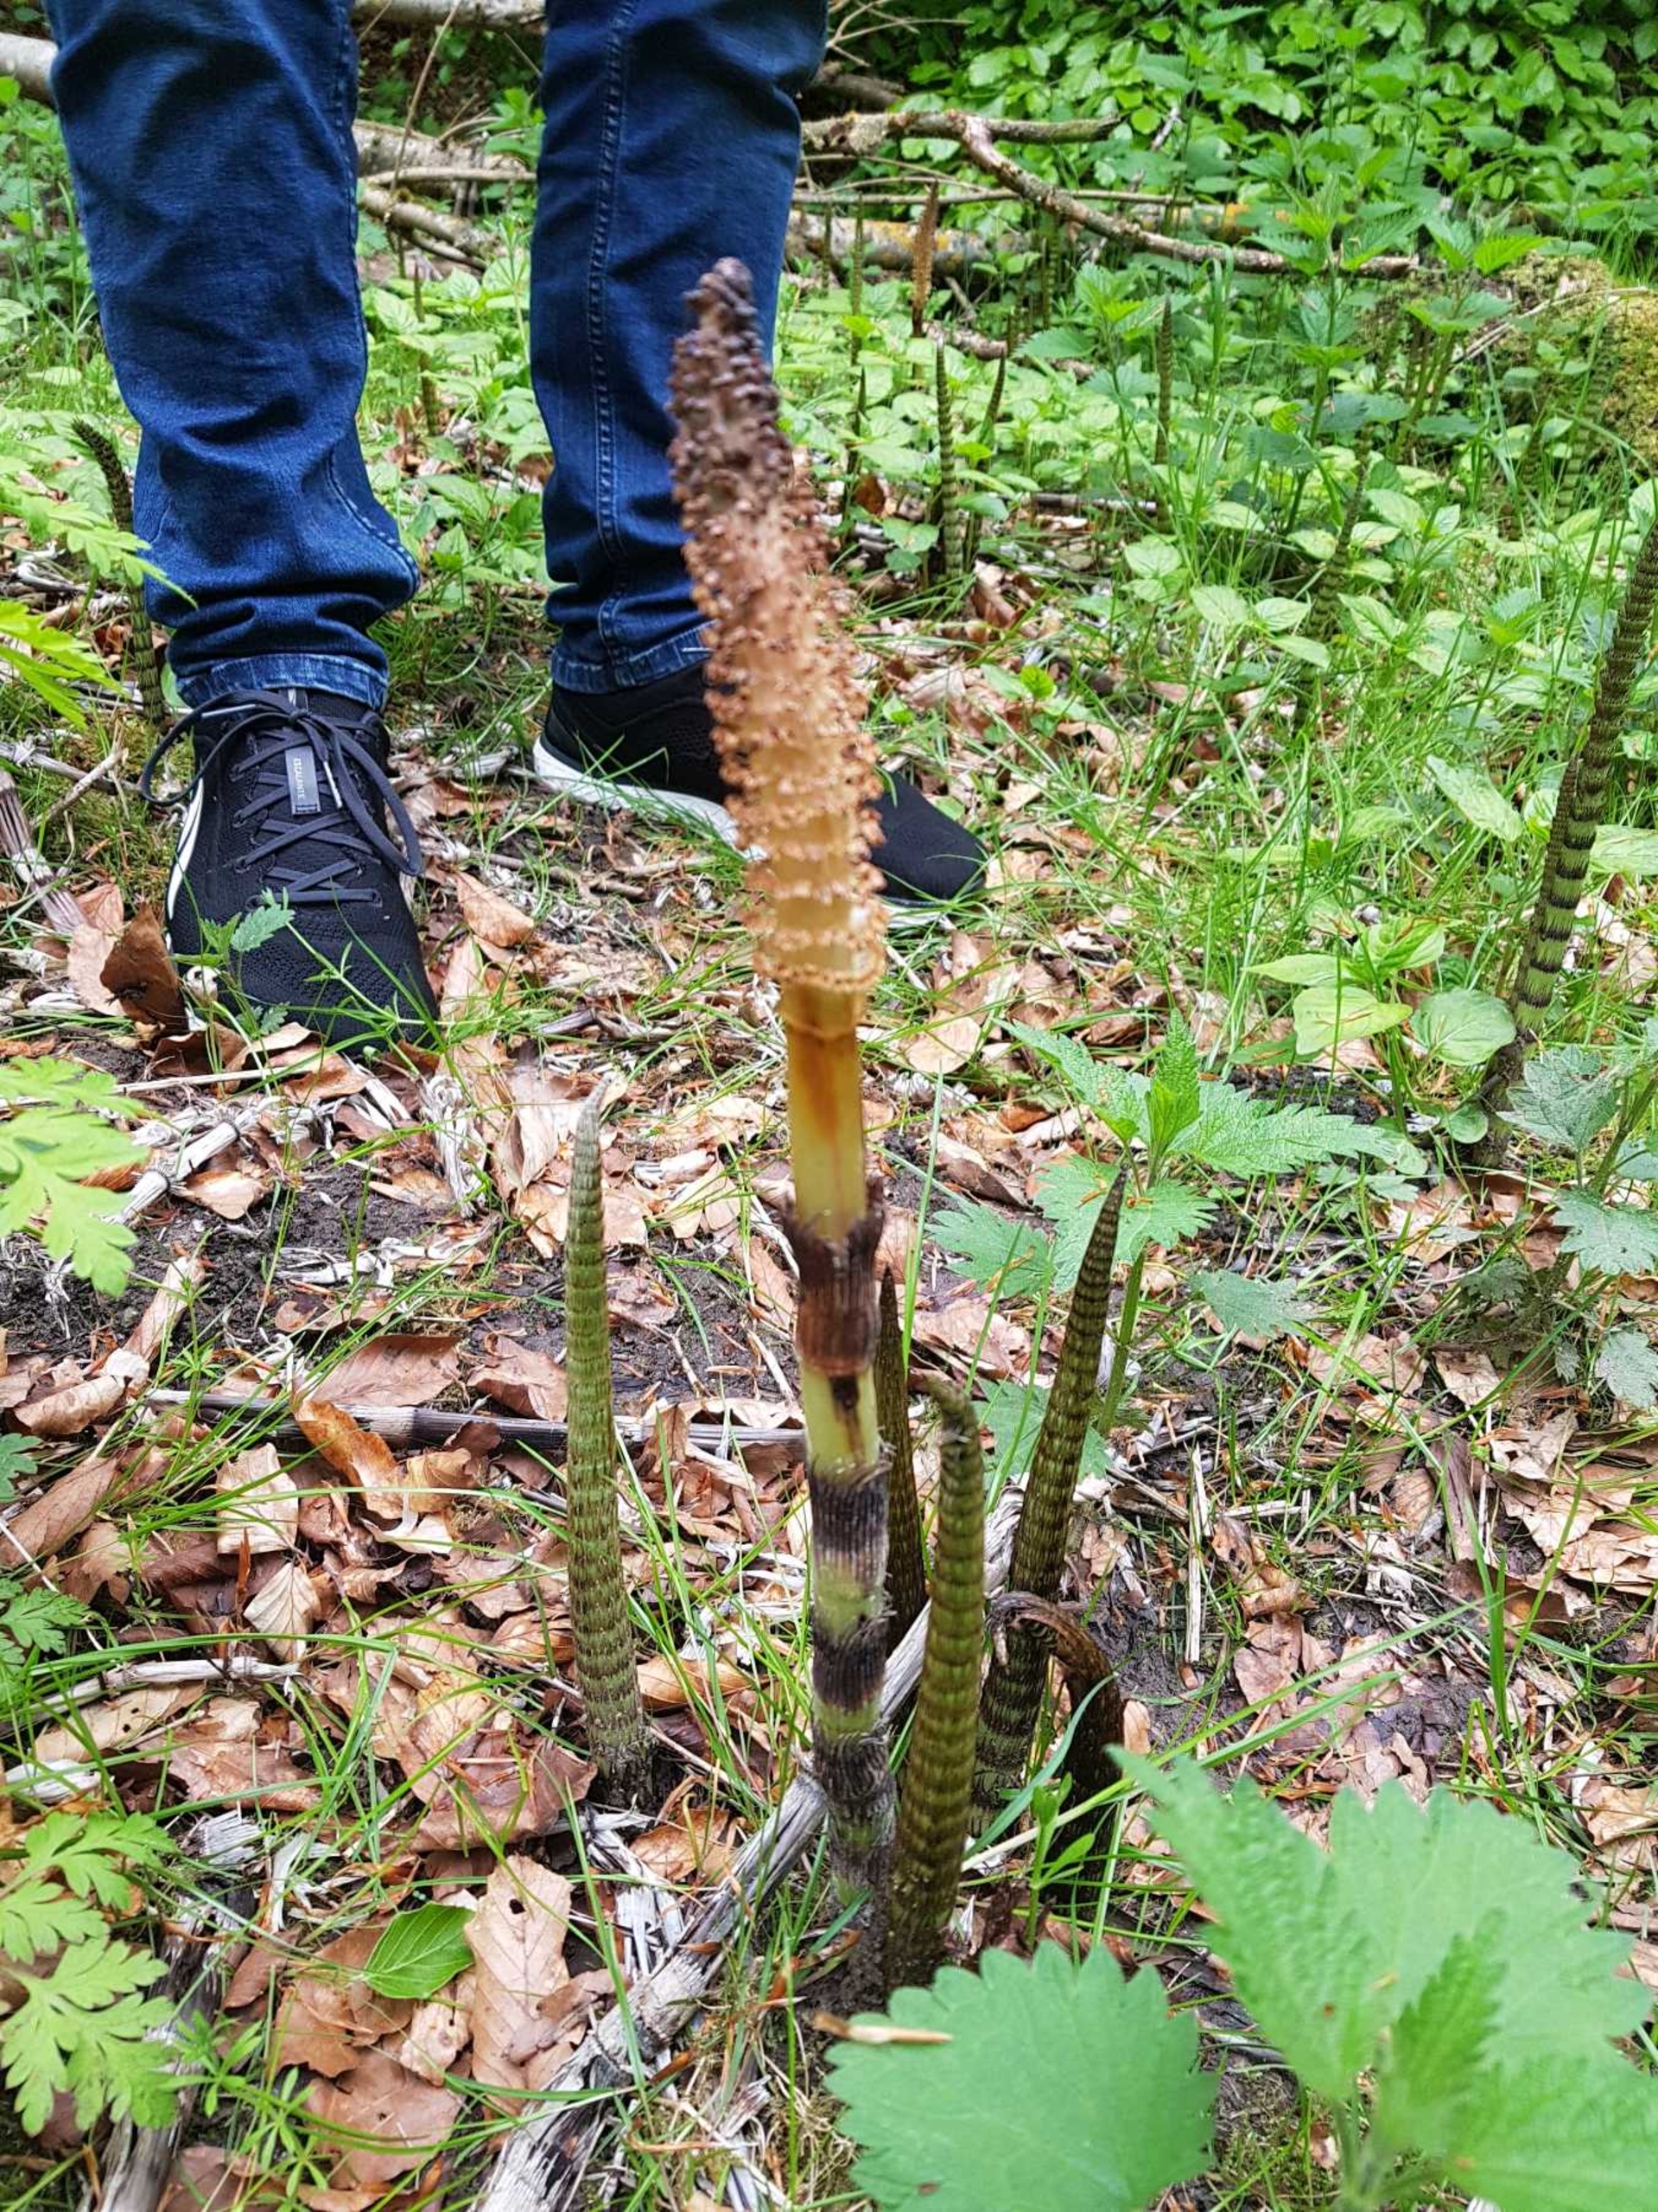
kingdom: Plantae
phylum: Tracheophyta
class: Polypodiopsida
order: Equisetales
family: Equisetaceae
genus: Equisetum
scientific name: Equisetum telmateia
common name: Elfenbens-padderok
